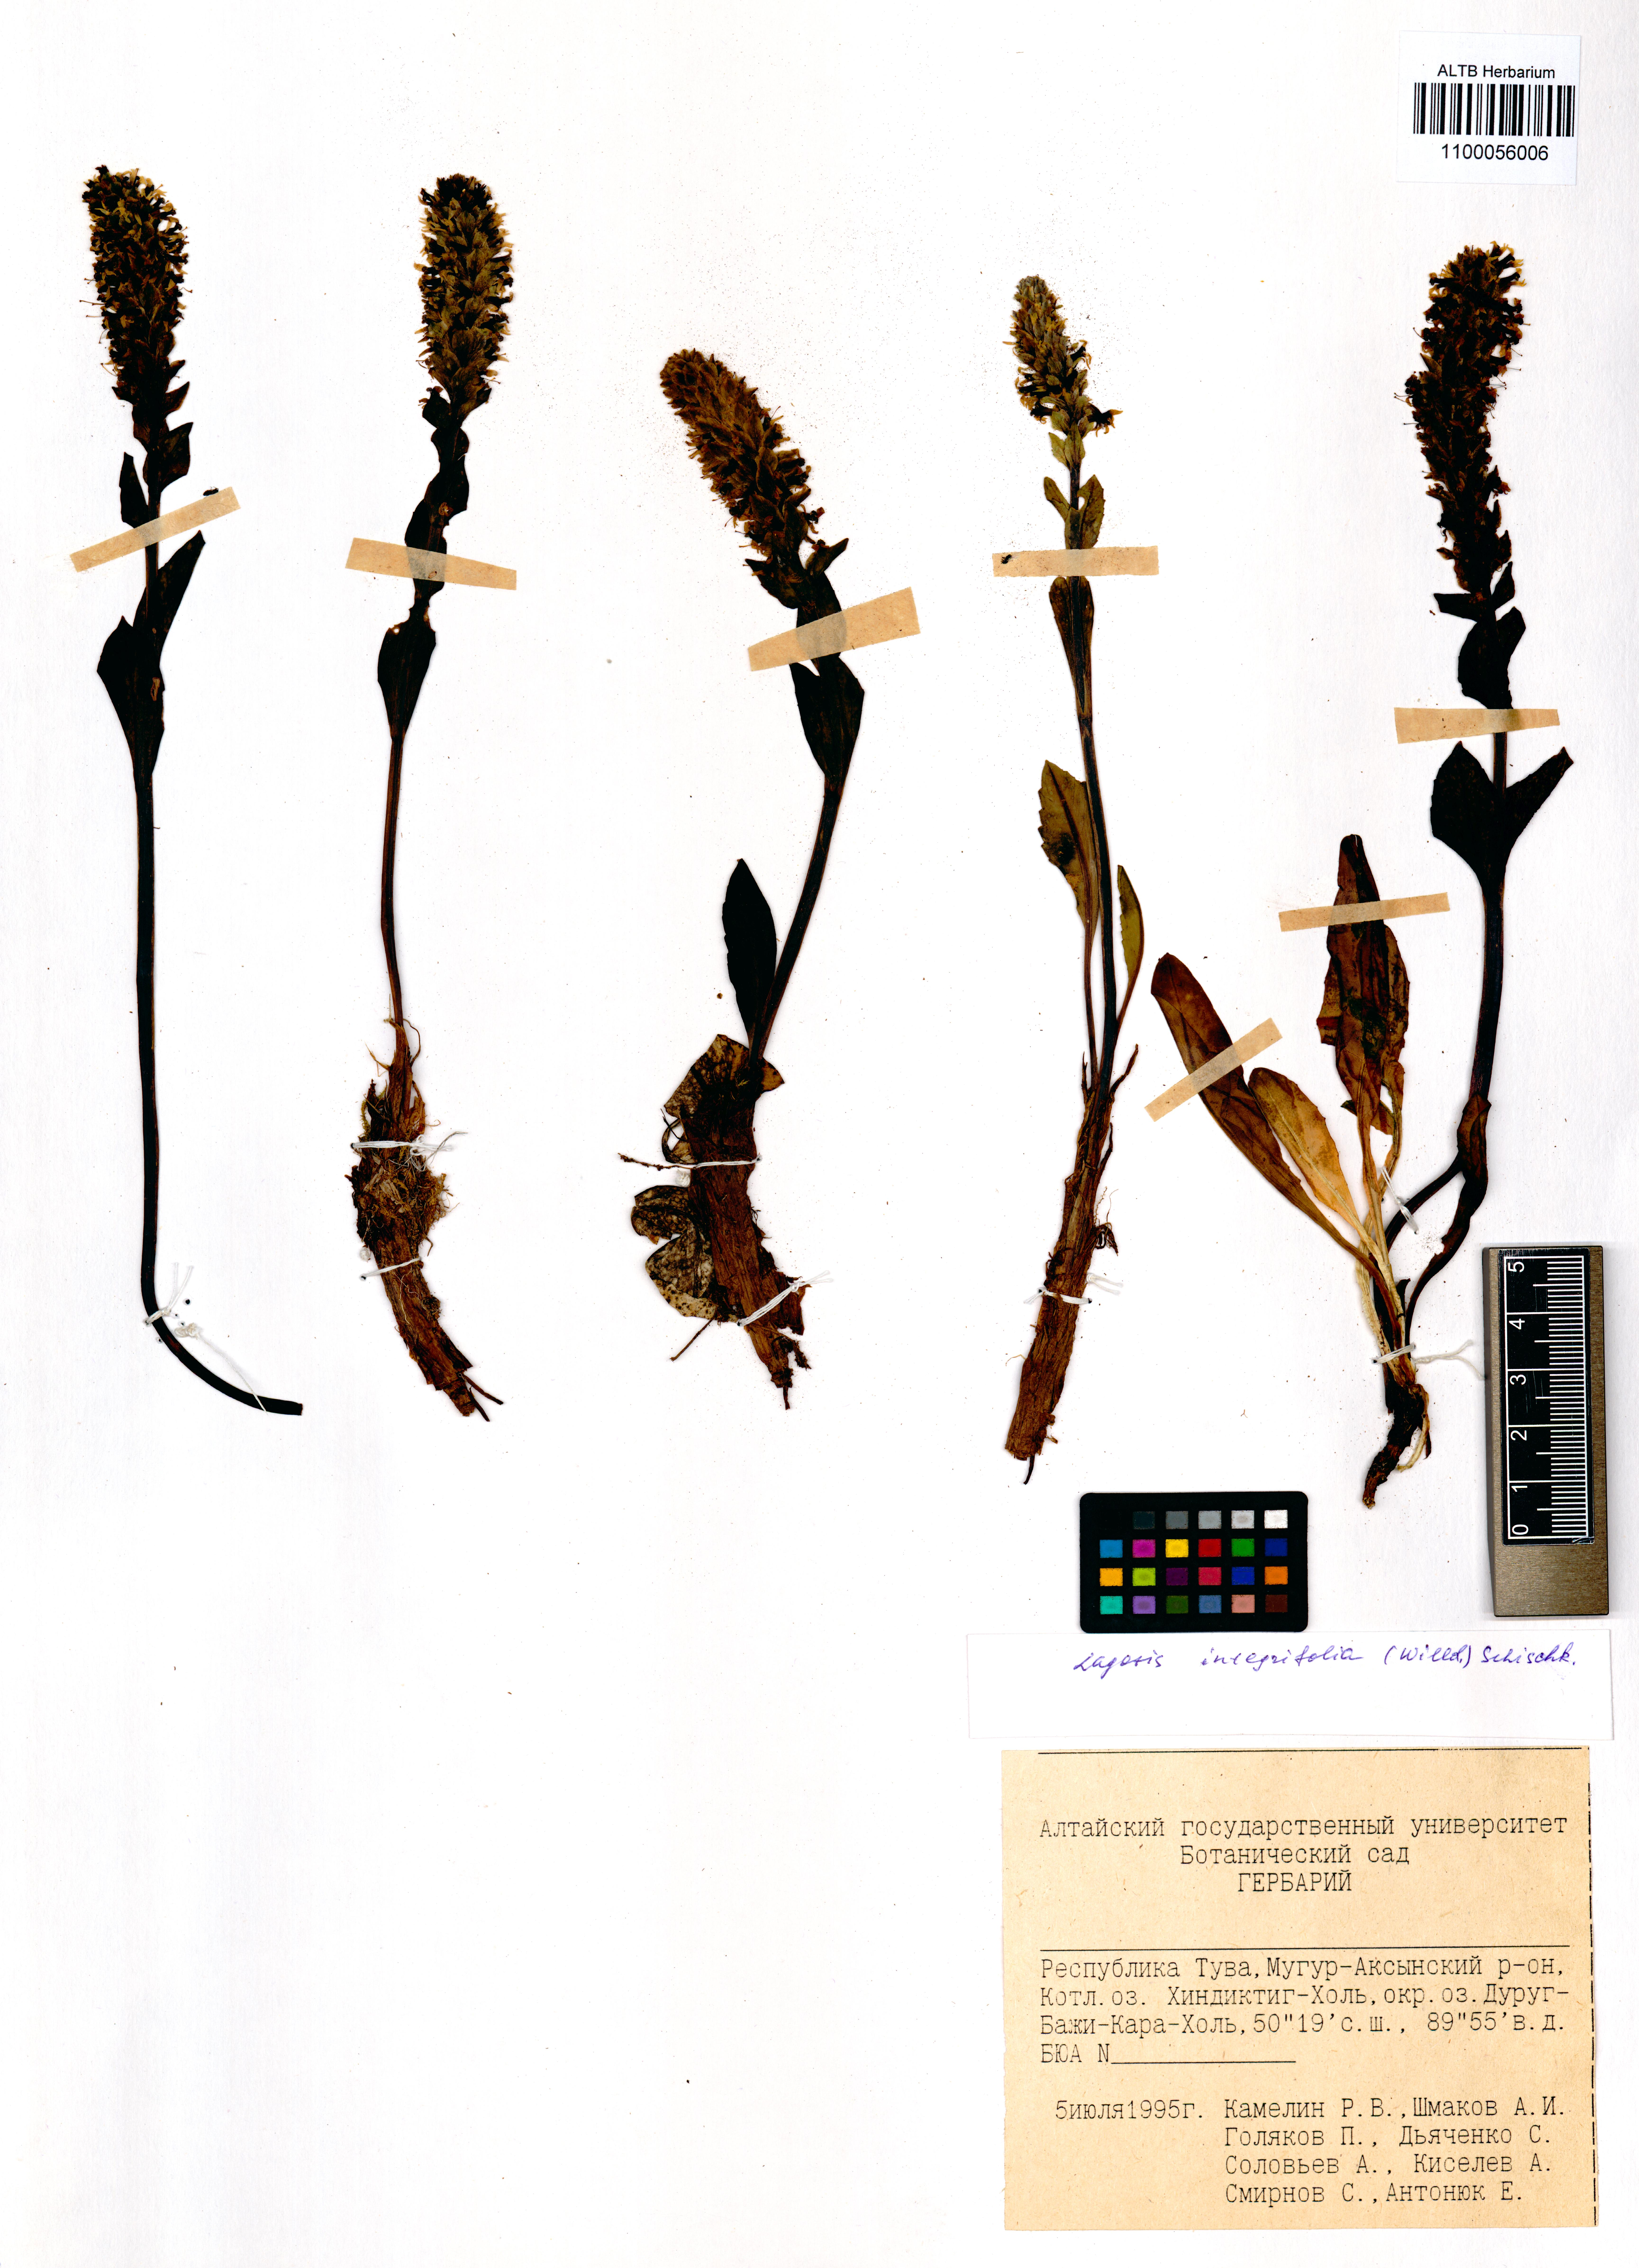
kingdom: Plantae
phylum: Tracheophyta
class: Magnoliopsida
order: Lamiales
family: Plantaginaceae
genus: Lagotis
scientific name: Lagotis integrifolia
